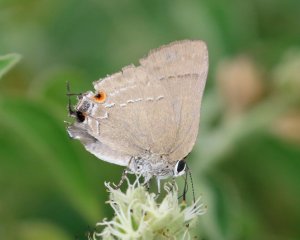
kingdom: Animalia
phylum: Arthropoda
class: Insecta
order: Lepidoptera
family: Lycaenidae
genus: Thecla
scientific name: Thecla strophius
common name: Strophius Hairstreak
